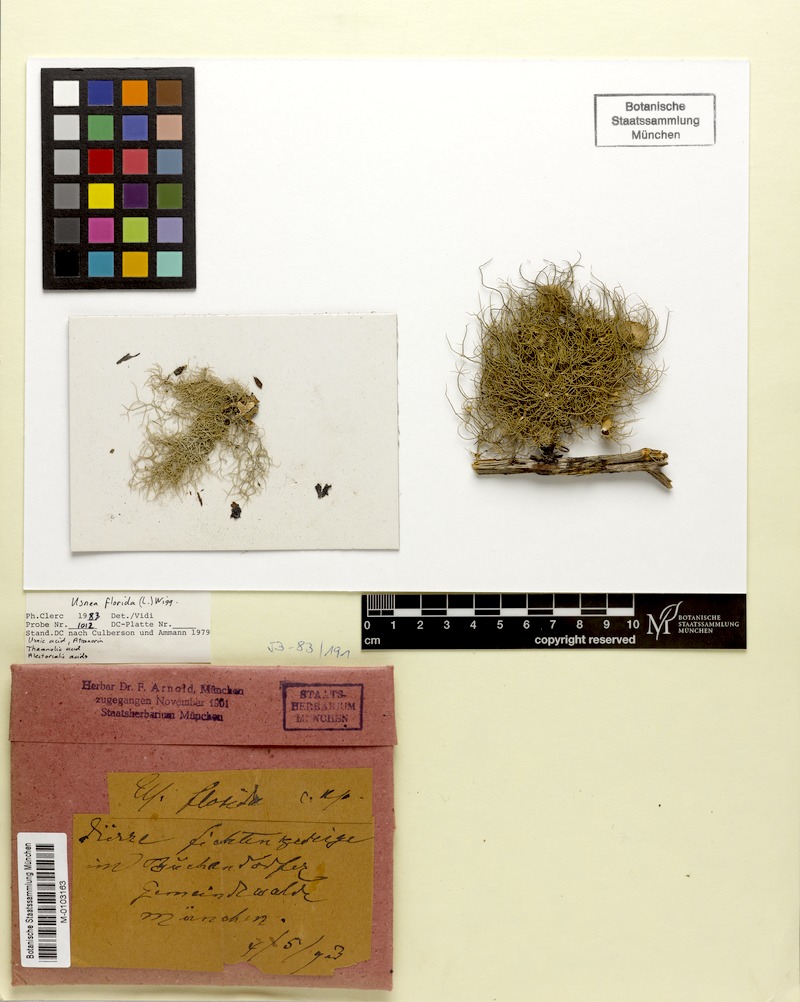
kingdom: Fungi
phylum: Ascomycota
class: Lecanoromycetes
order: Lecanorales
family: Parmeliaceae
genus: Usnea
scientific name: Usnea florida
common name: Witches' whiskers lichen
